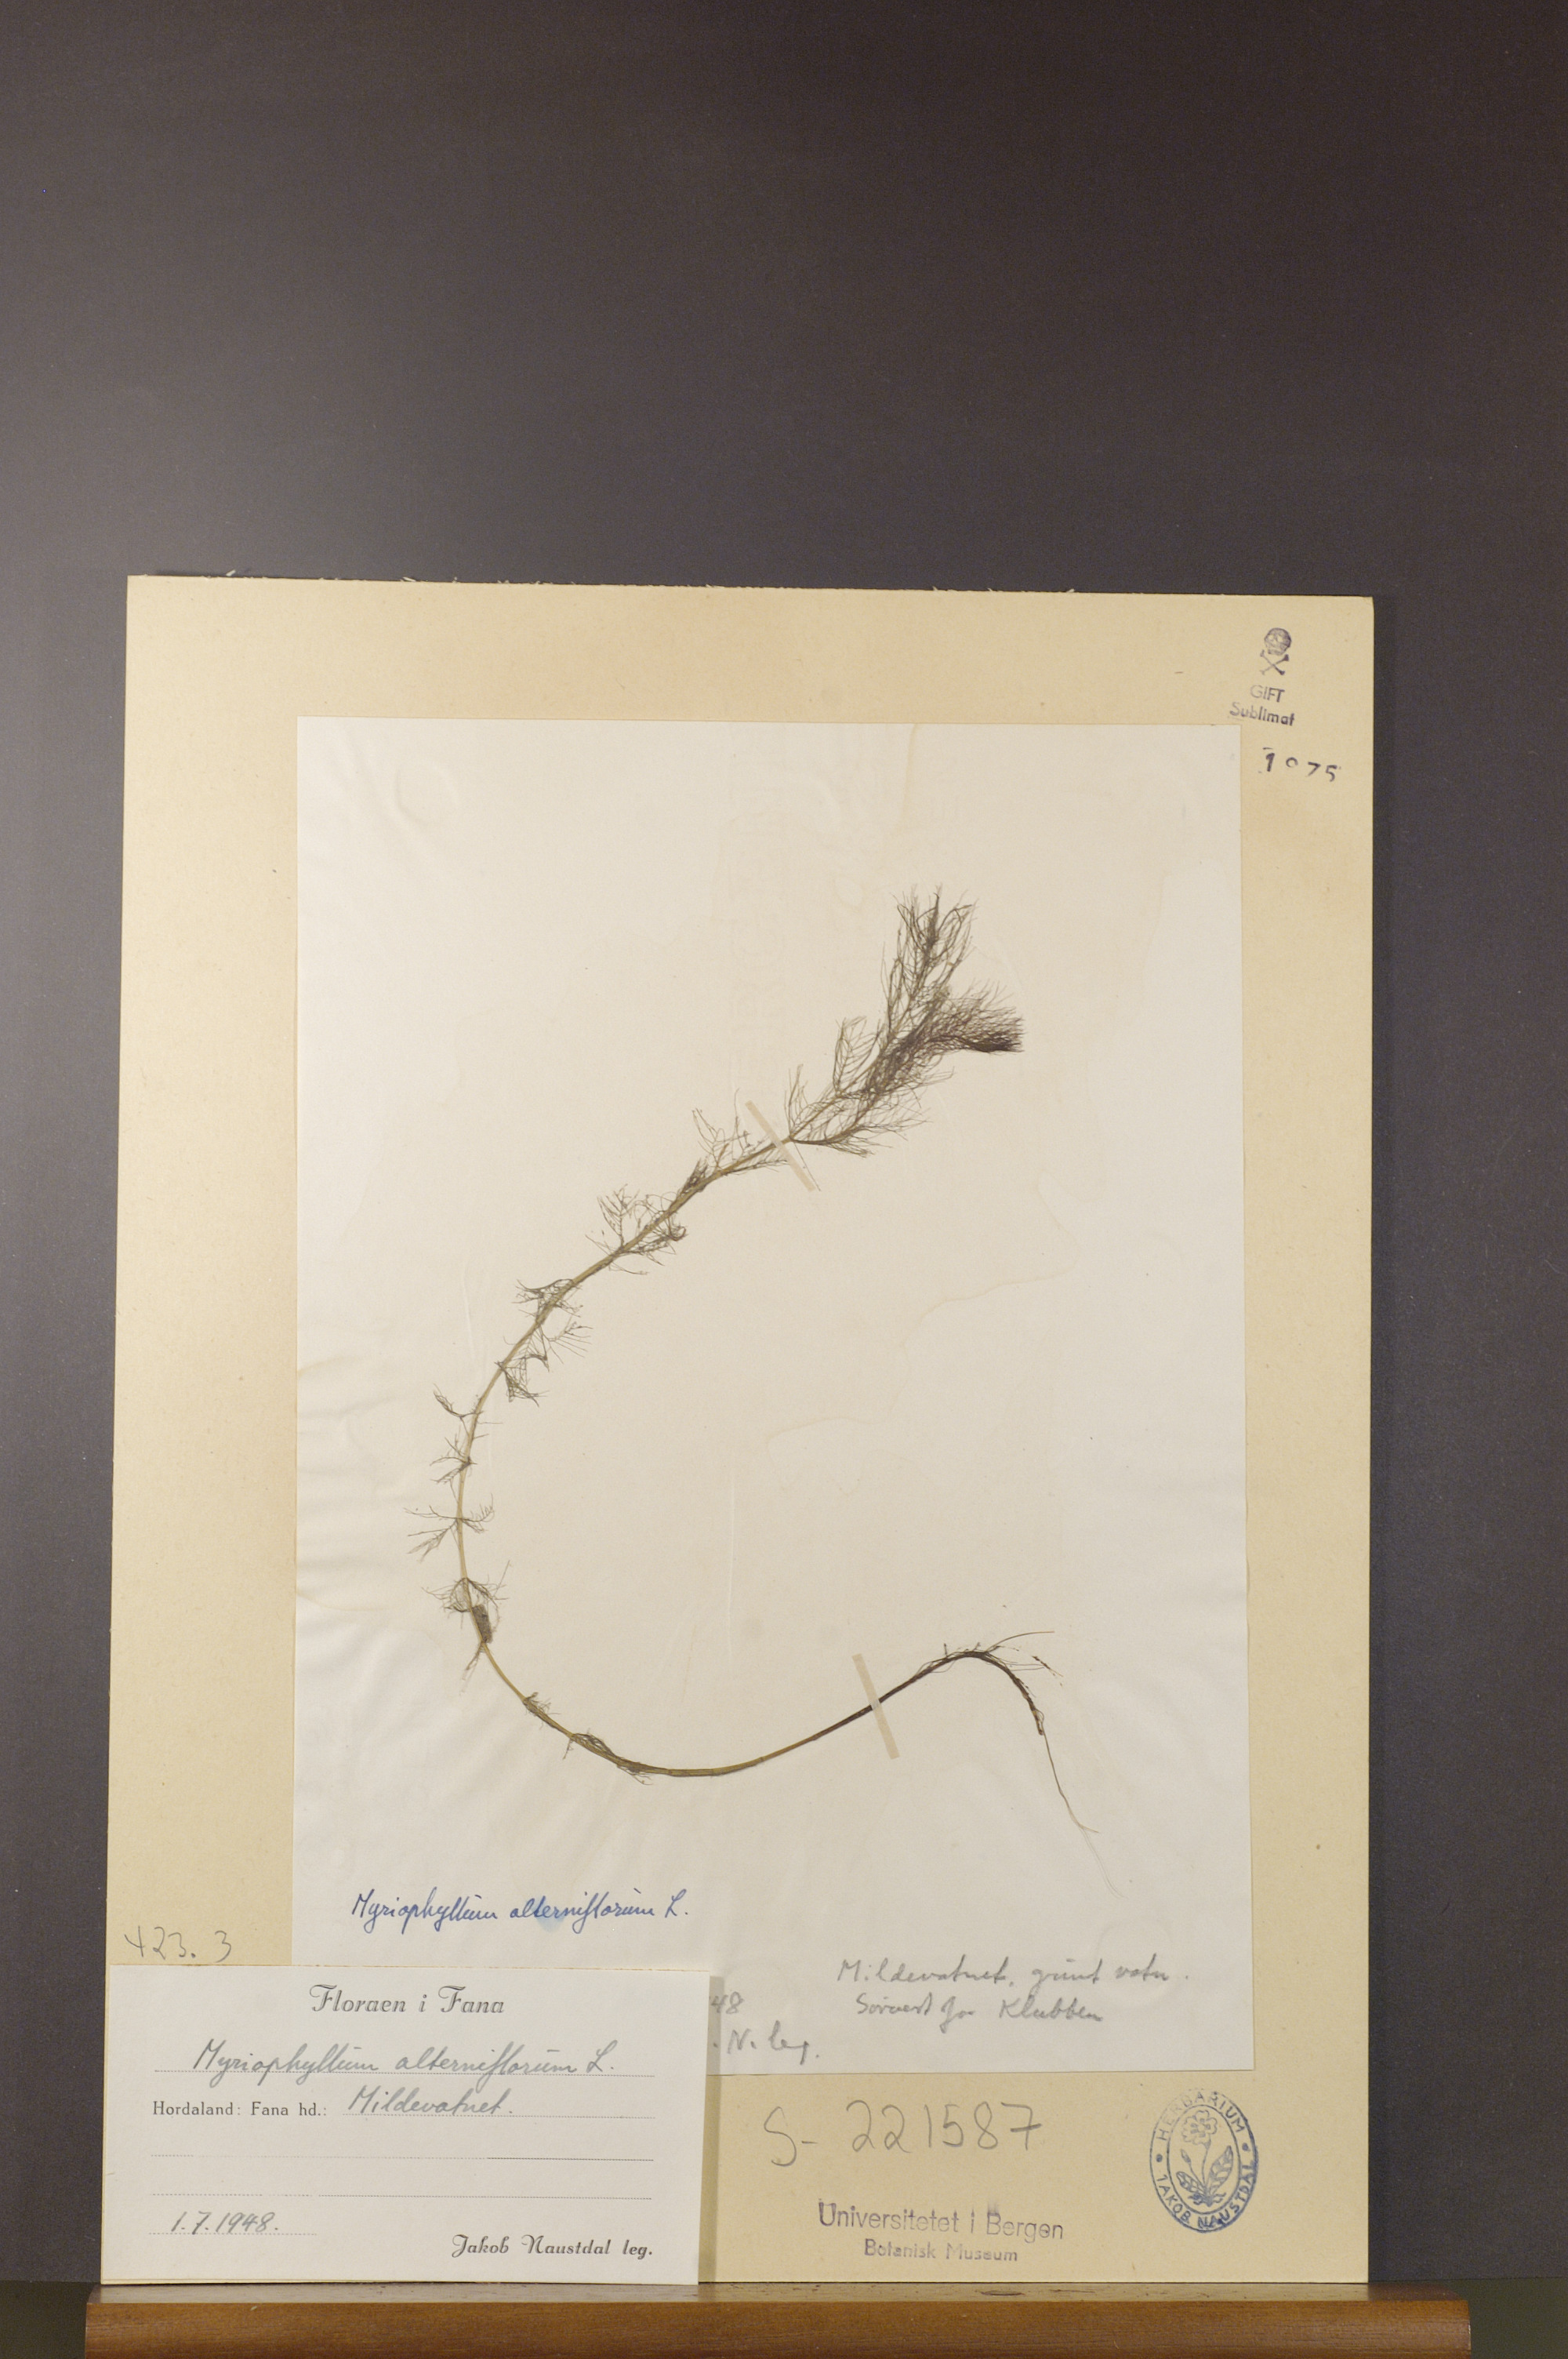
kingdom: Plantae
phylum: Tracheophyta
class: Magnoliopsida
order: Saxifragales
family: Haloragaceae
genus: Myriophyllum
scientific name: Myriophyllum alterniflorum
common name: Alternate water-milfoil
